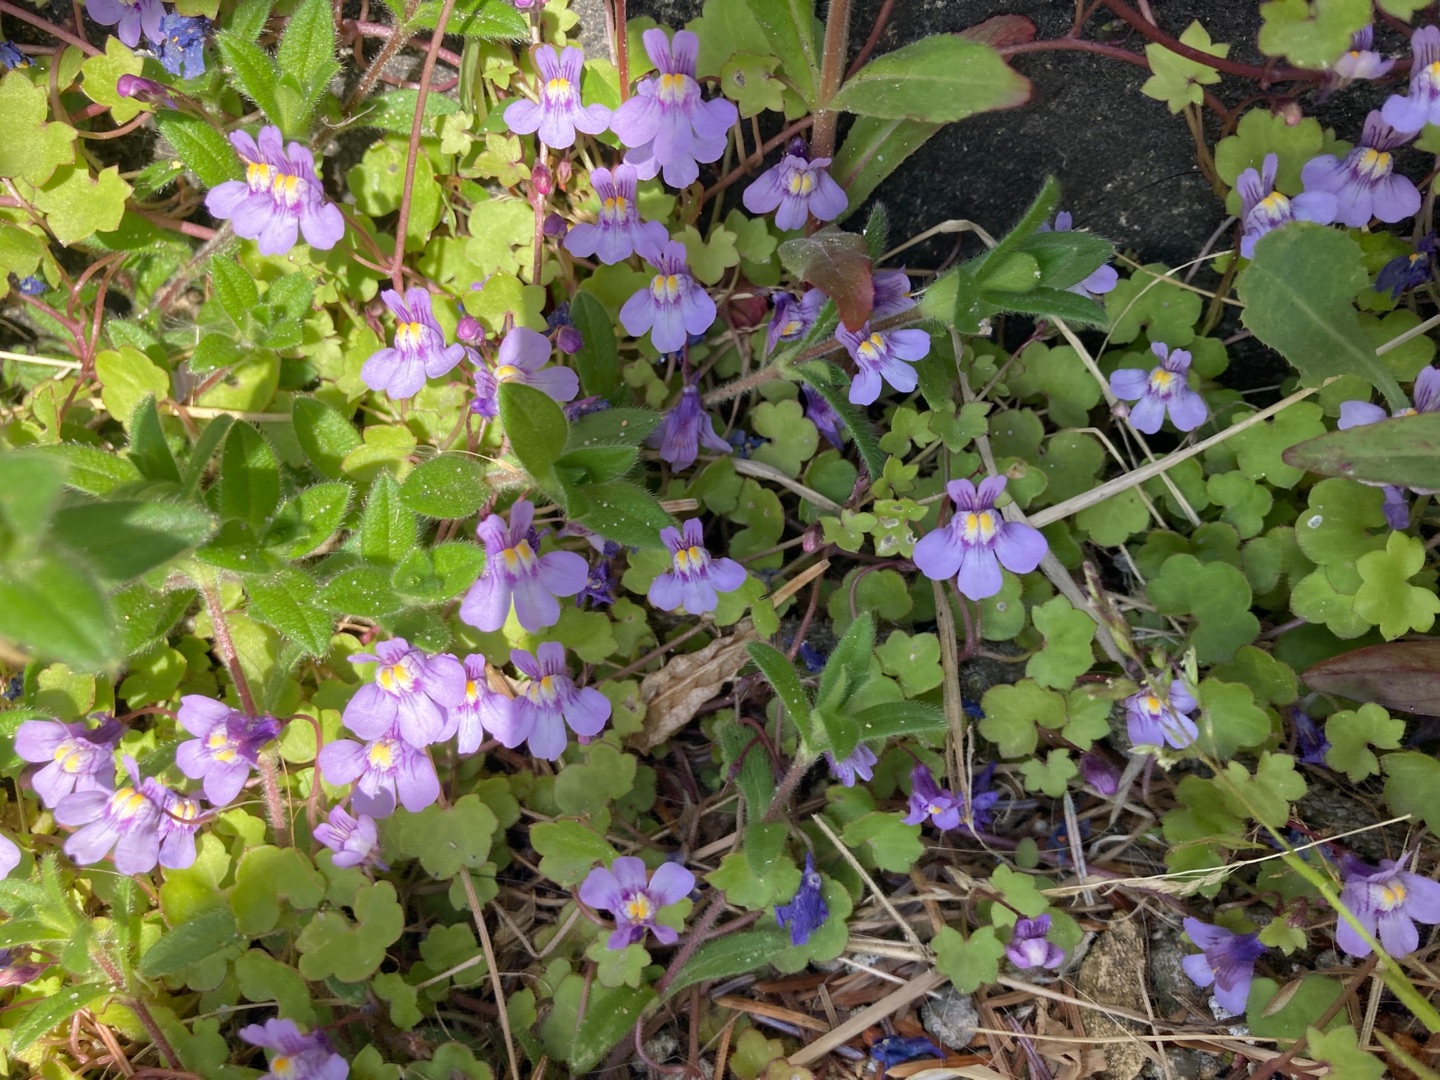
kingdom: Plantae
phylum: Tracheophyta
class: Magnoliopsida
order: Lamiales
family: Plantaginaceae
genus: Cymbalaria
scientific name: Cymbalaria muralis
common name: Vedbend-torskemund
